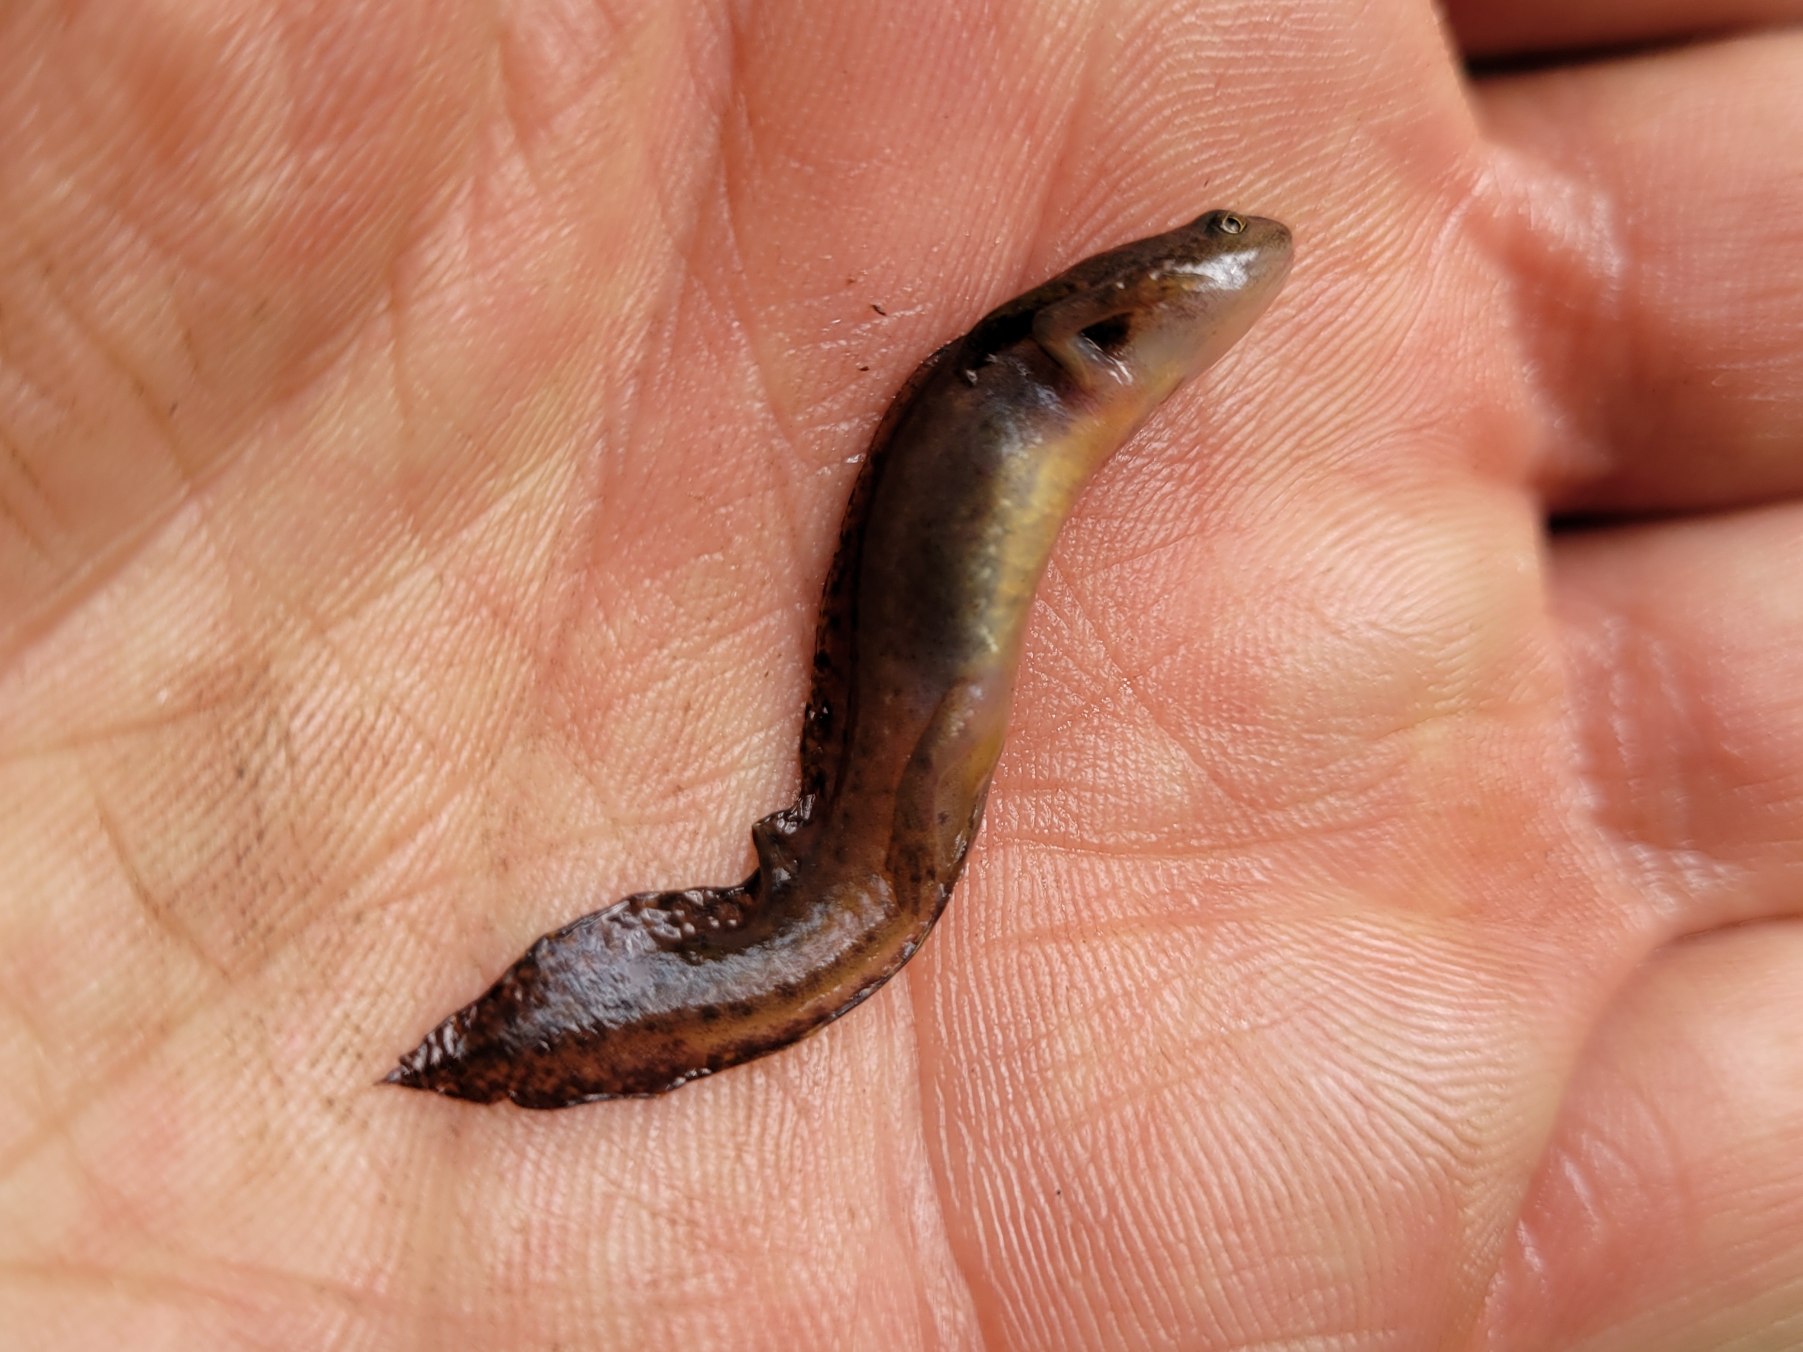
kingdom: Animalia
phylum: Chordata
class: Amphibia
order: Caudata
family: Salamandridae
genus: Ichthyosaura
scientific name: Ichthyosaura alpestris
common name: Bjergsalamander
